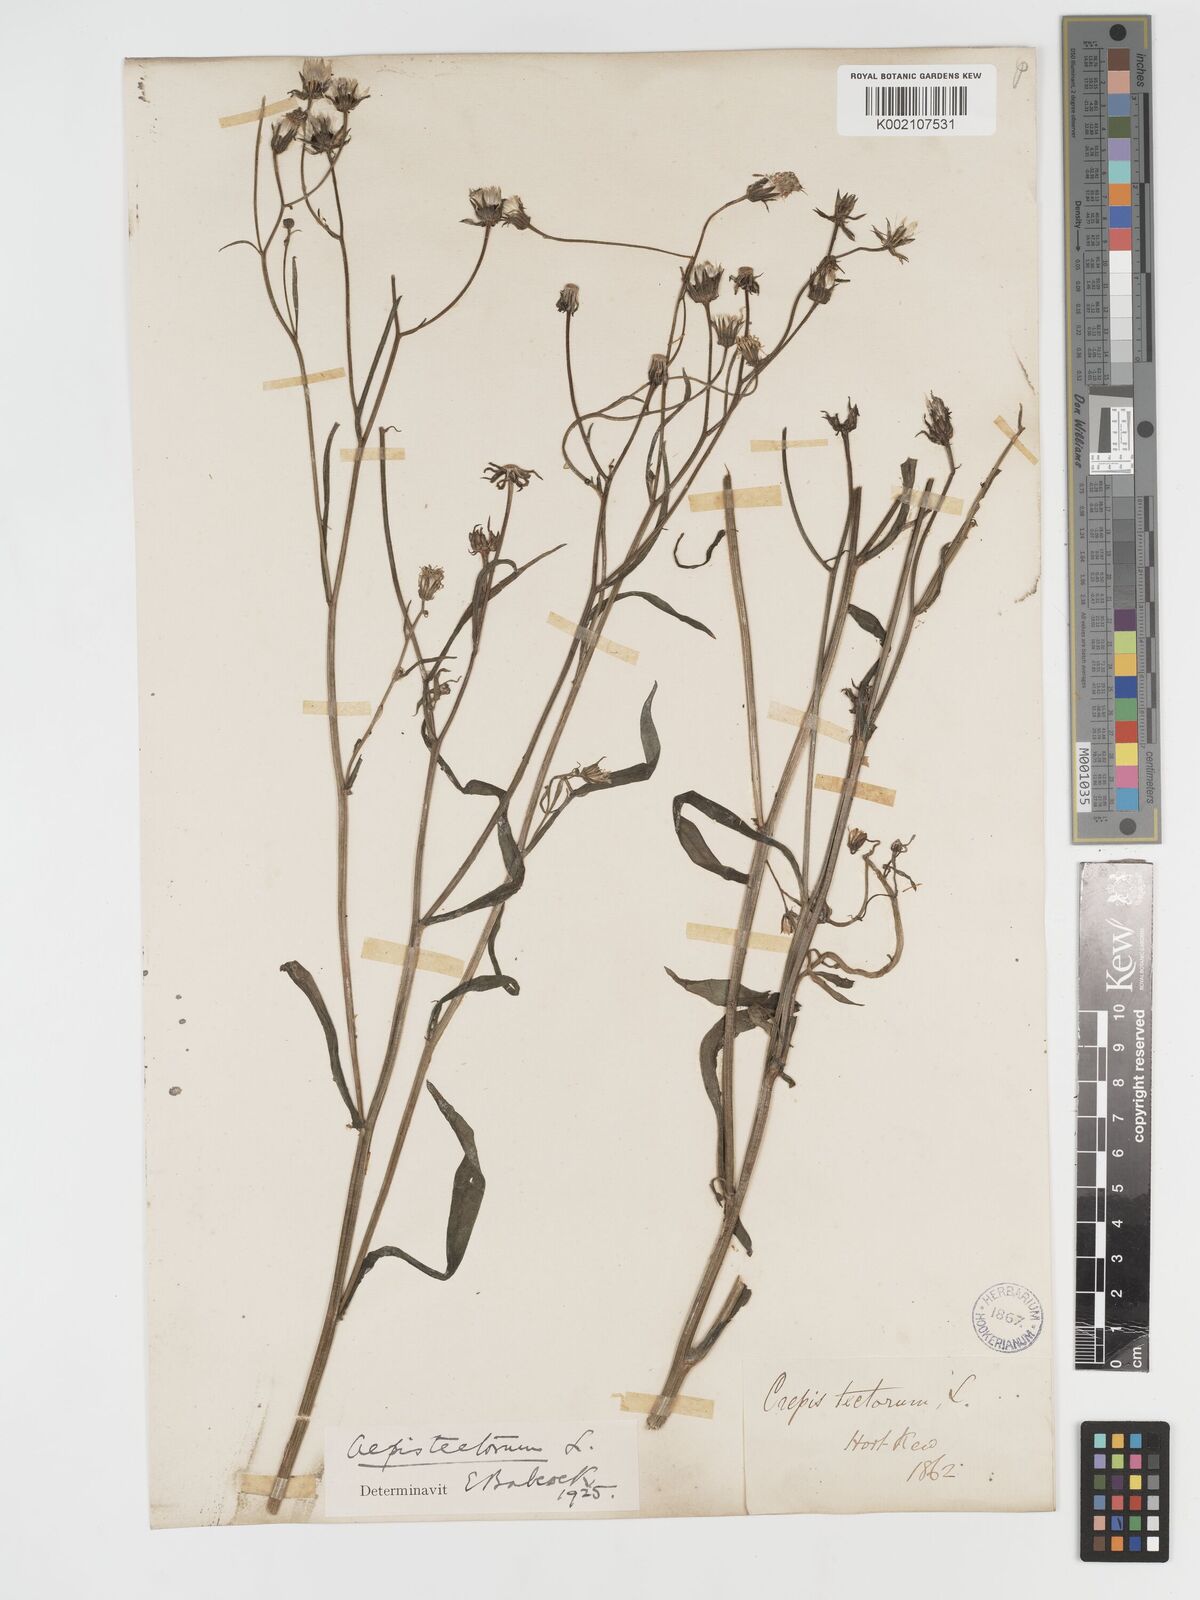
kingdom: Plantae
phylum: Tracheophyta
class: Magnoliopsida
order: Asterales
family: Asteraceae
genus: Crepis
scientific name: Crepis tectorum
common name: Narrow-leaved hawk's-beard
